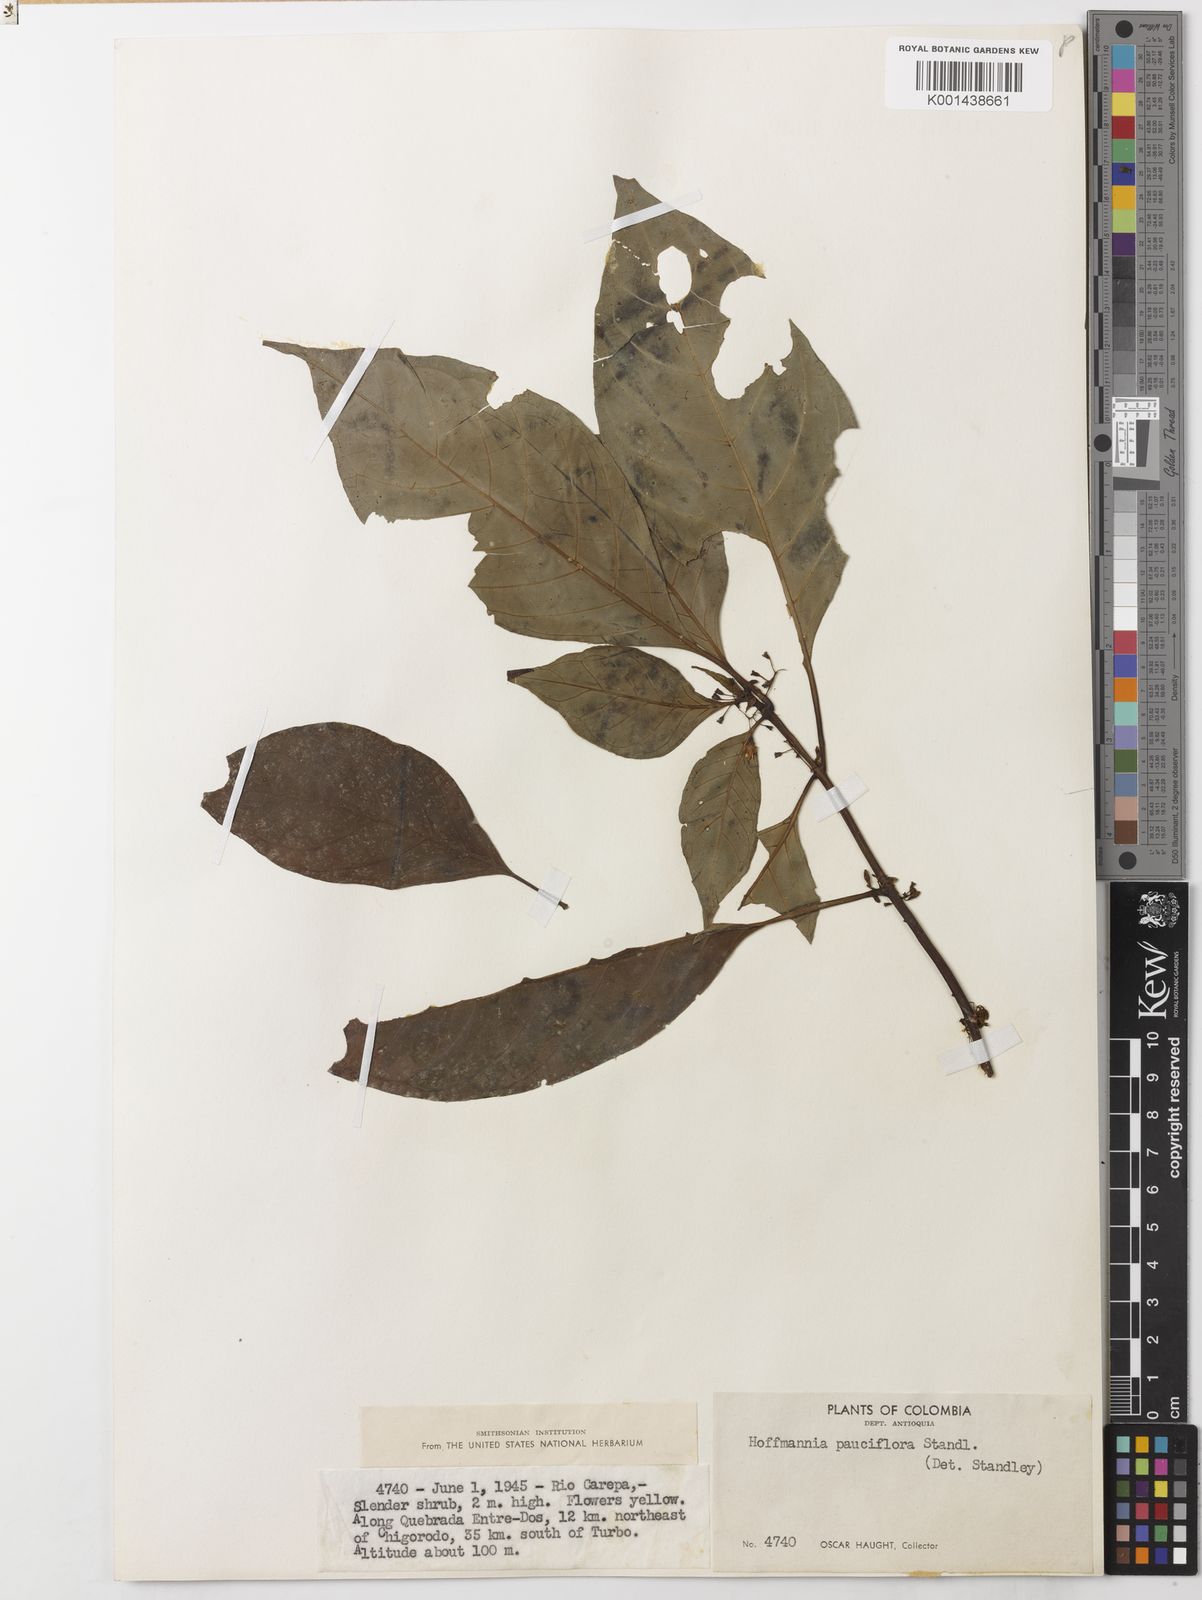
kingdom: Plantae
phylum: Tracheophyta
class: Magnoliopsida
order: Gentianales
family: Rubiaceae
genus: Hoffmannia
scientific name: Hoffmannia pauciflora
